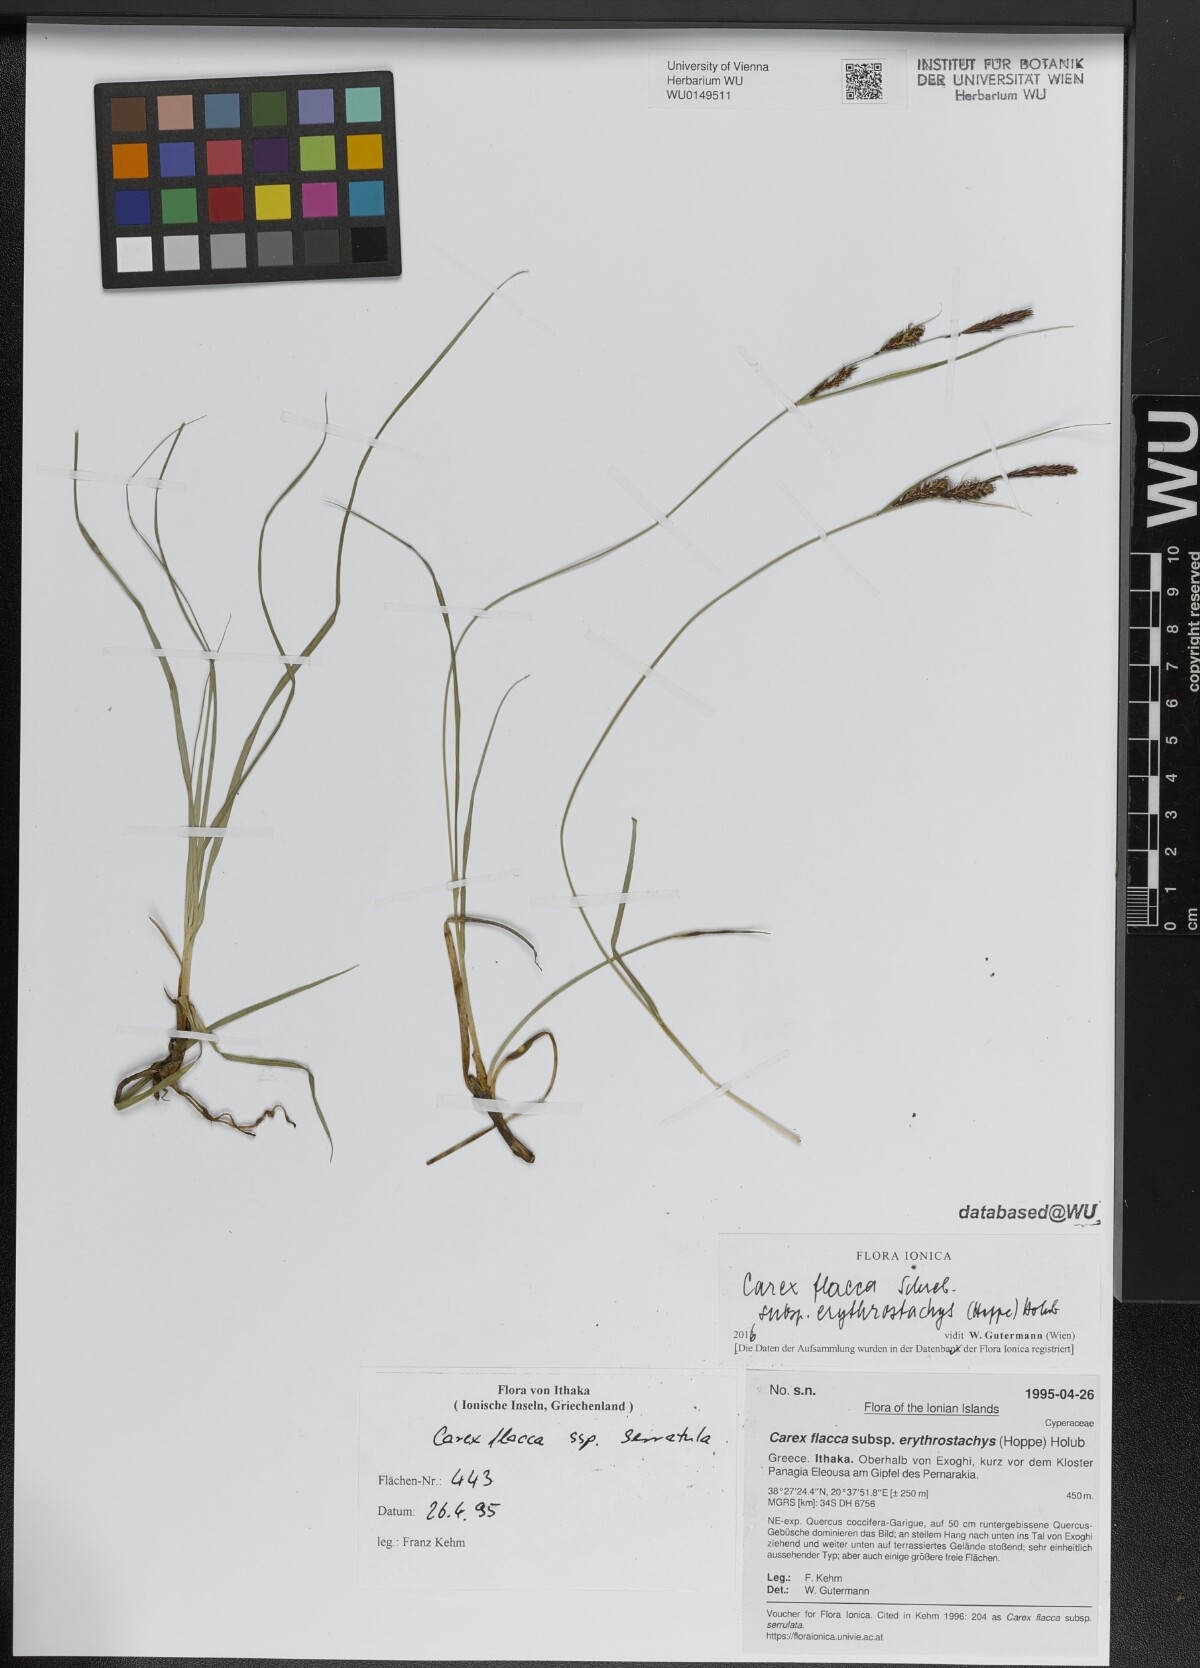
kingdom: Plantae
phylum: Tracheophyta
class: Liliopsida
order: Poales
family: Cyperaceae
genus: Carex
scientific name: Carex flacca
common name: Glaucous sedge
